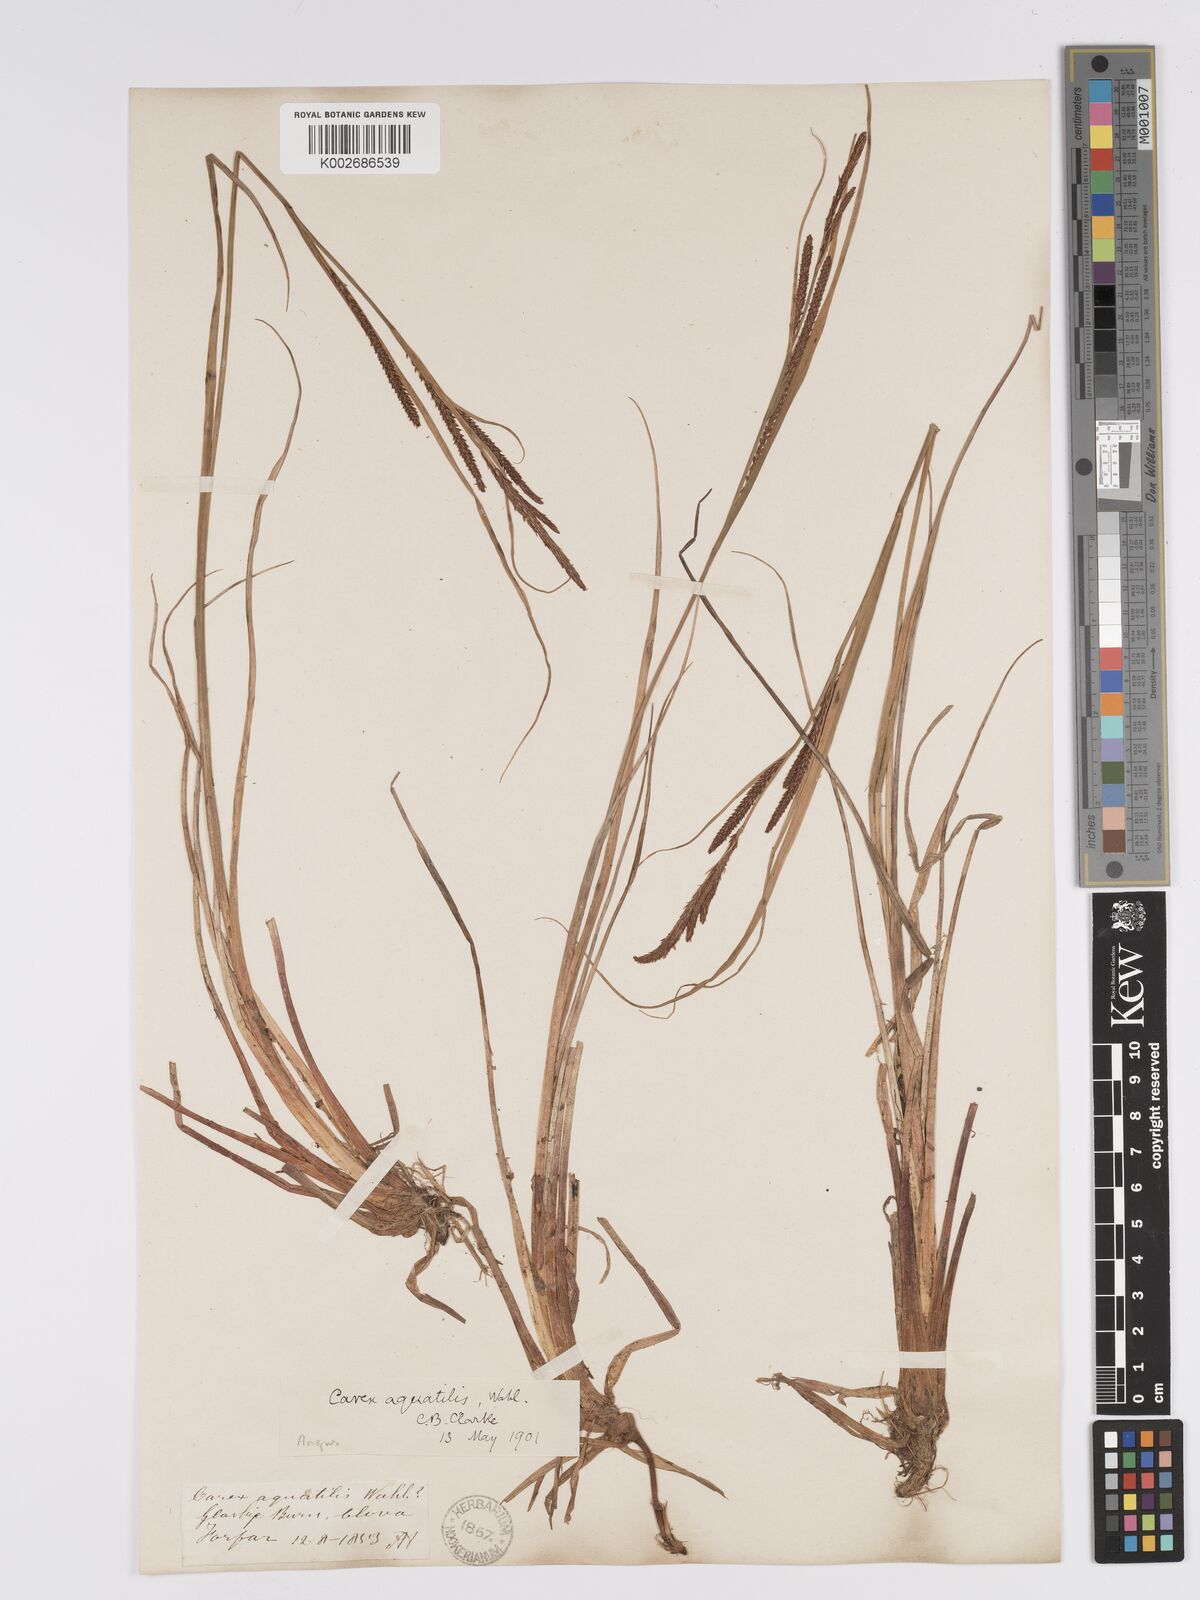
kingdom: Plantae
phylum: Tracheophyta
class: Liliopsida
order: Poales
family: Cyperaceae
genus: Carex
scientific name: Carex aquatilis
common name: Water sedge
